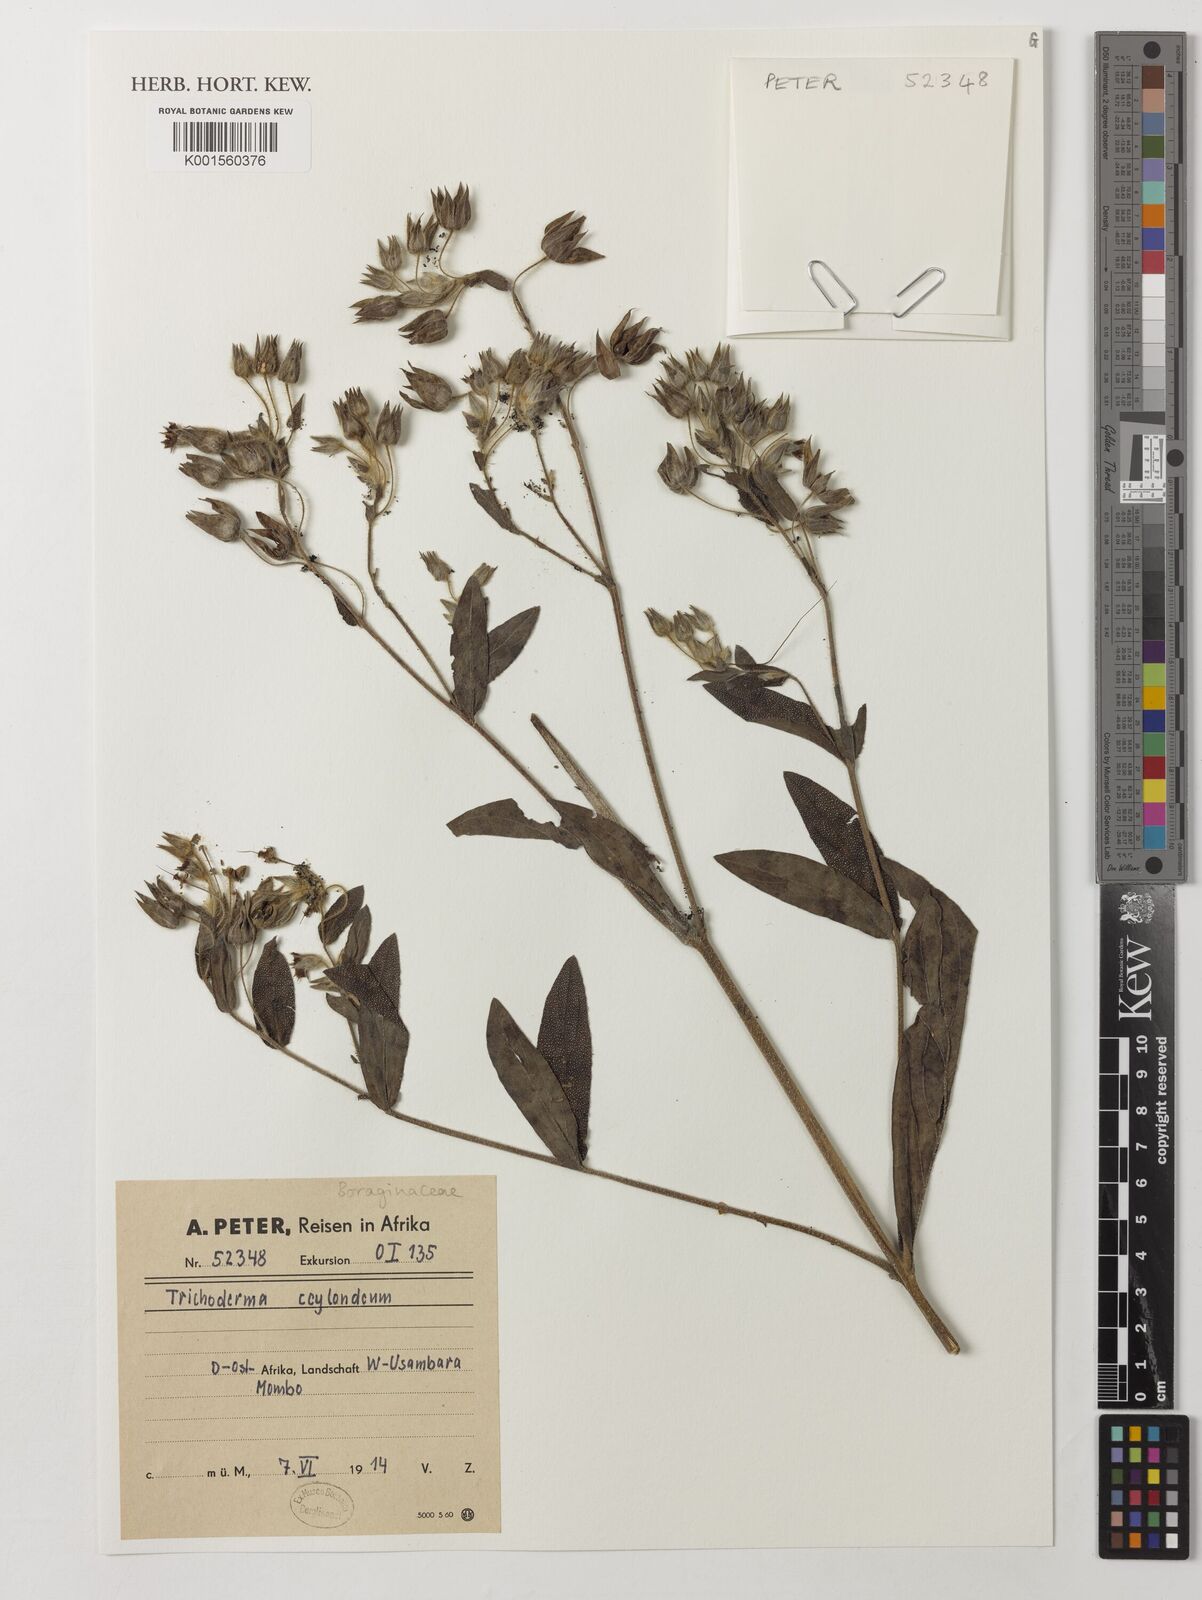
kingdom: Plantae
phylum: Tracheophyta
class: Magnoliopsida
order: Boraginales
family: Boraginaceae
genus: Trichodesma
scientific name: Trichodesma
